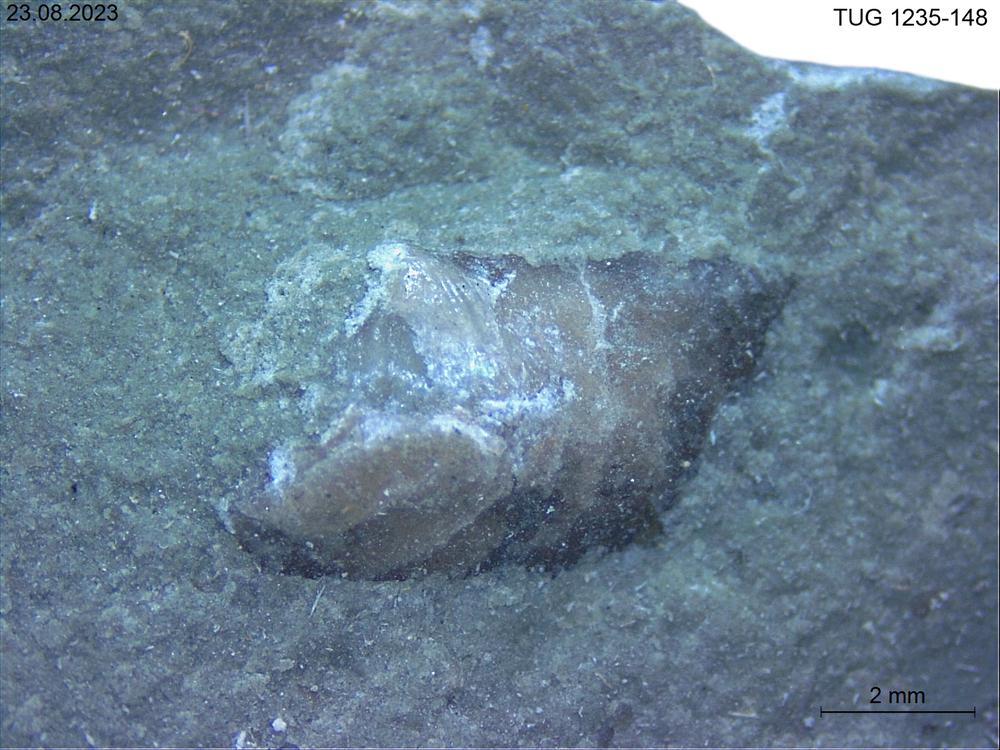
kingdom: Animalia
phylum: Brachiopoda
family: Oldhaminidae
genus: Eoplectodonta
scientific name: Eoplectodonta
